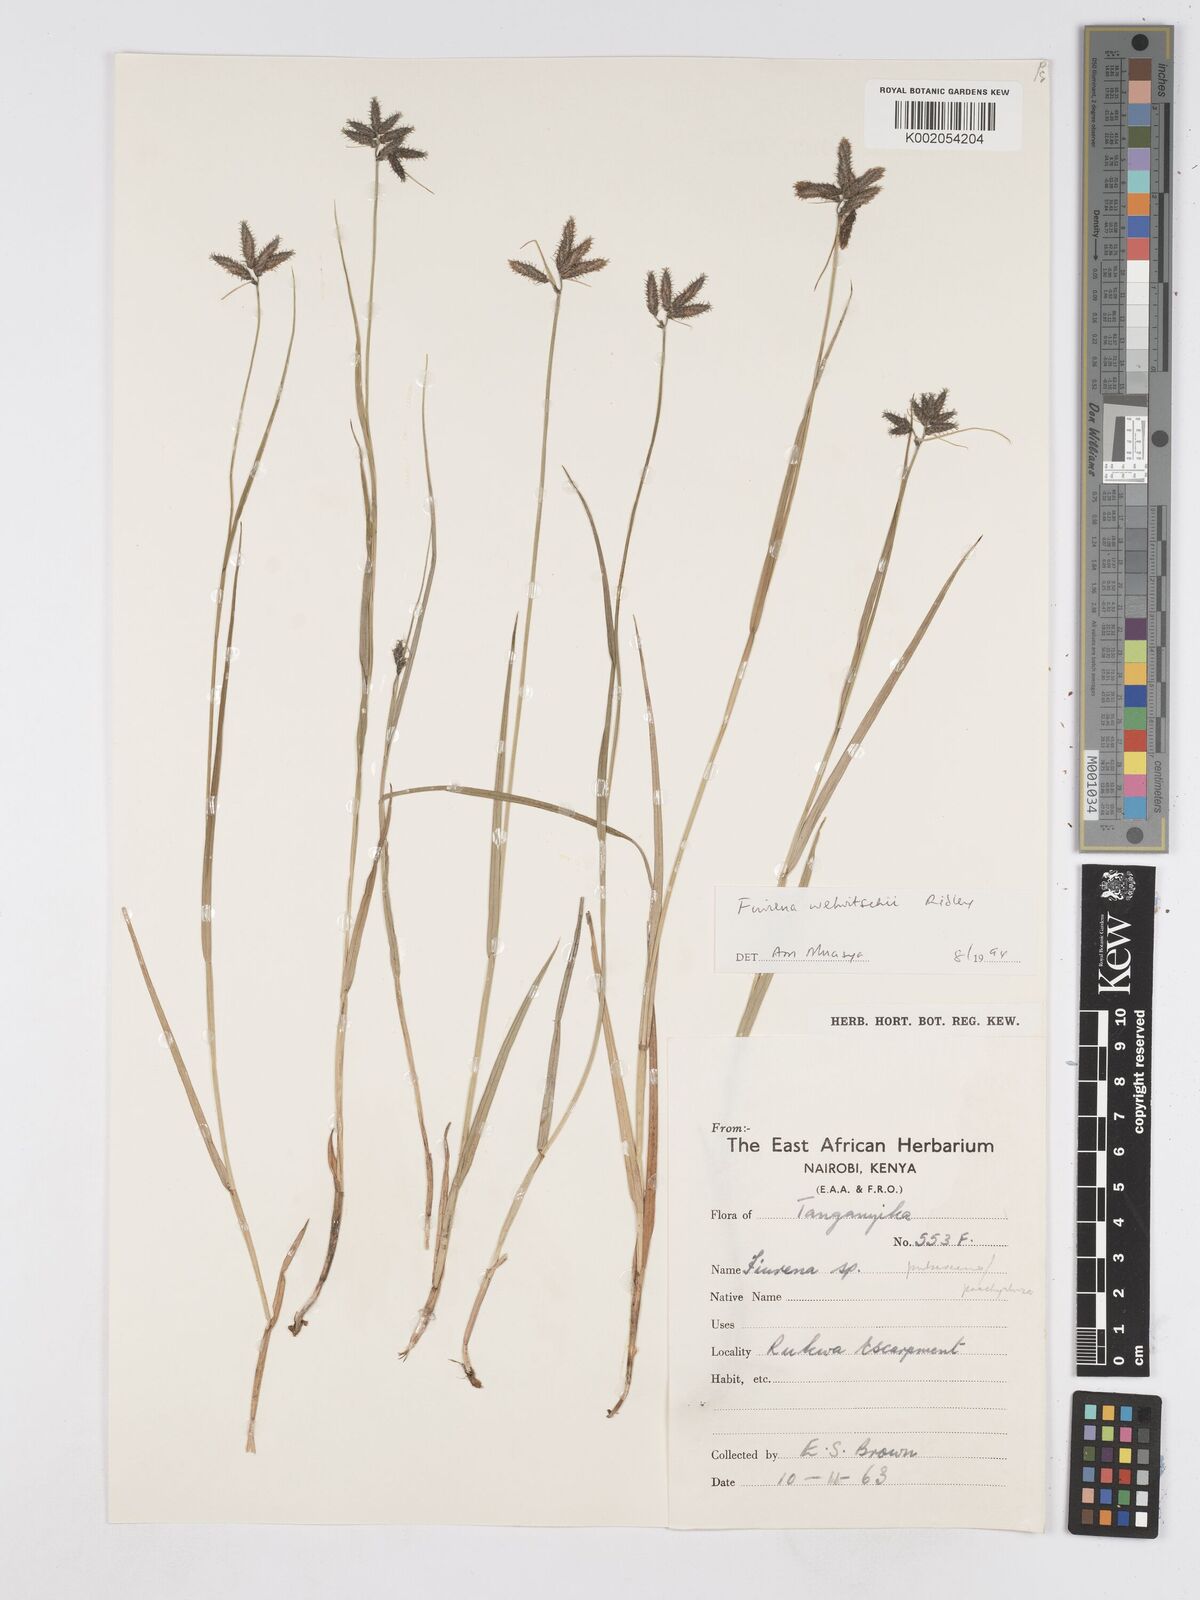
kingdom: Plantae
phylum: Tracheophyta
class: Liliopsida
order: Poales
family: Cyperaceae
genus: Fuirena
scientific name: Fuirena welwitschii
